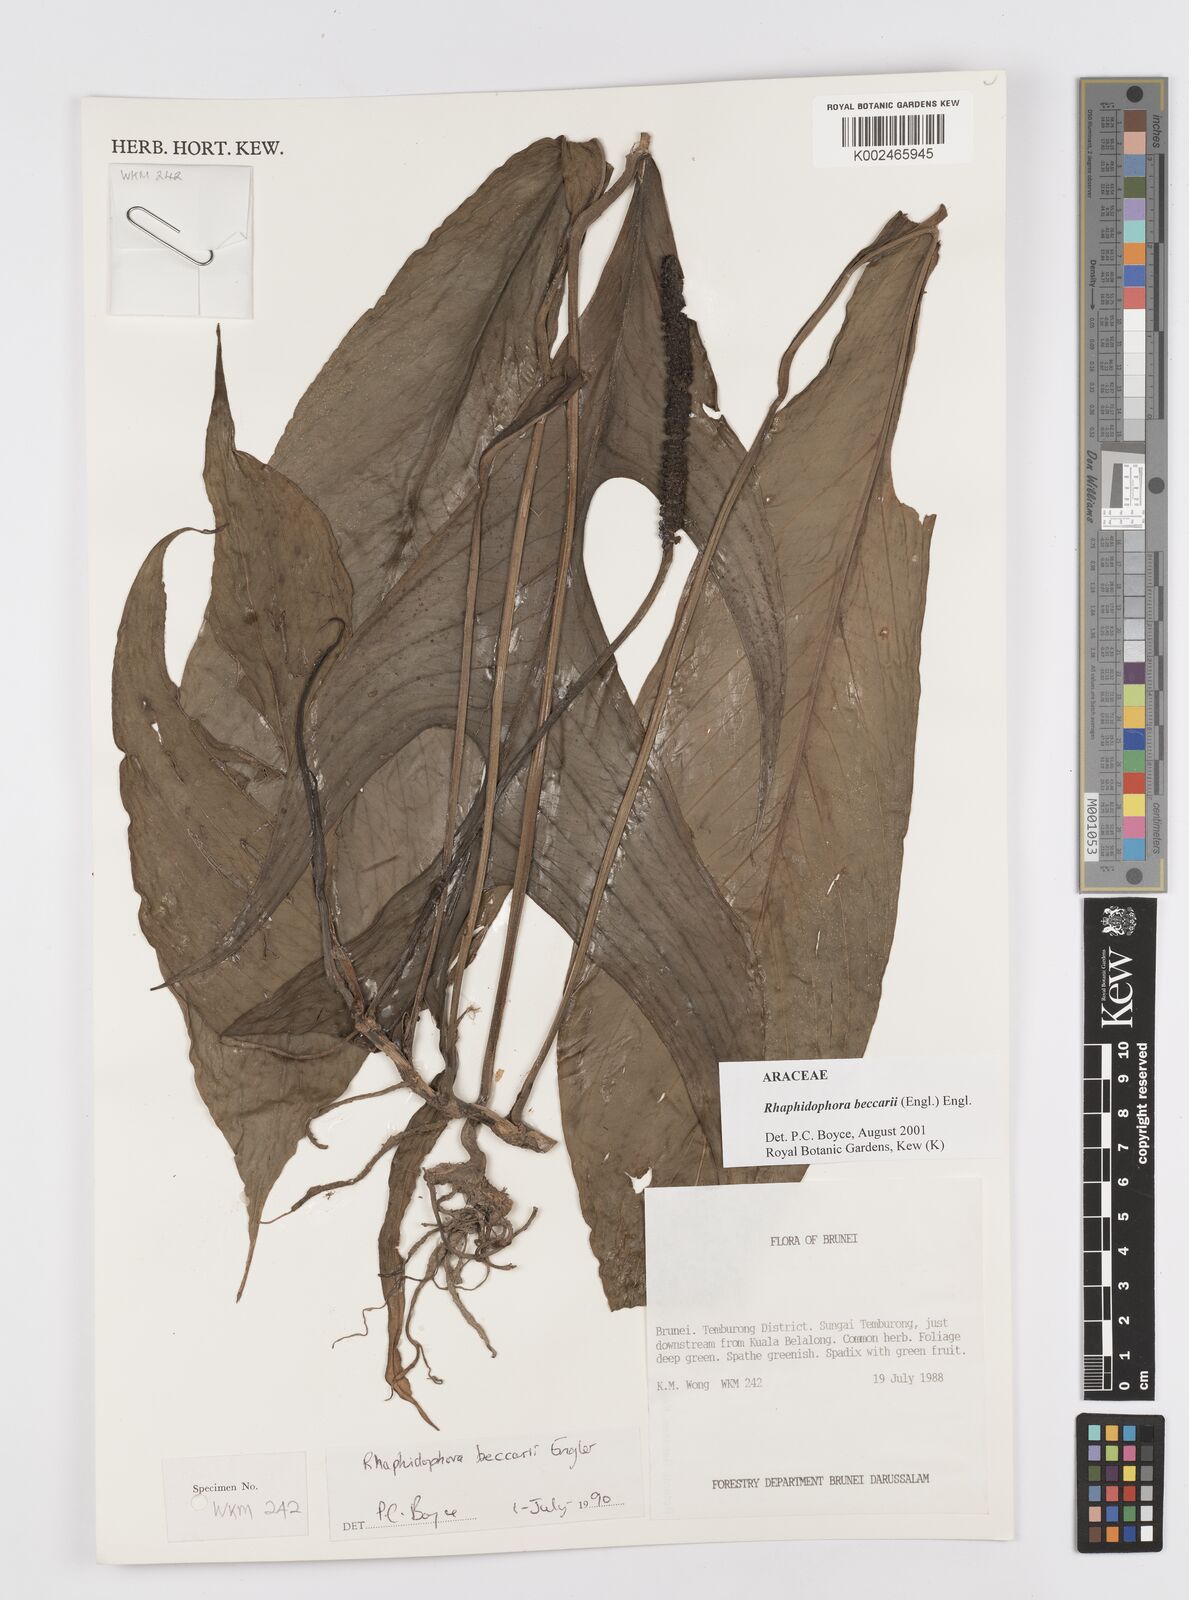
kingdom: Plantae
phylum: Tracheophyta
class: Liliopsida
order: Alismatales
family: Araceae
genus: Rhaphidophora
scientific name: Rhaphidophora beccarii
